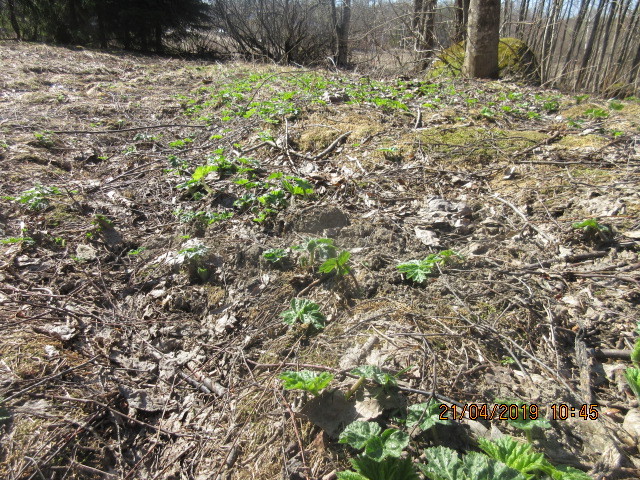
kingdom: Plantae
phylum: Tracheophyta
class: Magnoliopsida
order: Apiales
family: Apiaceae
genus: Heracleum
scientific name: Heracleum
